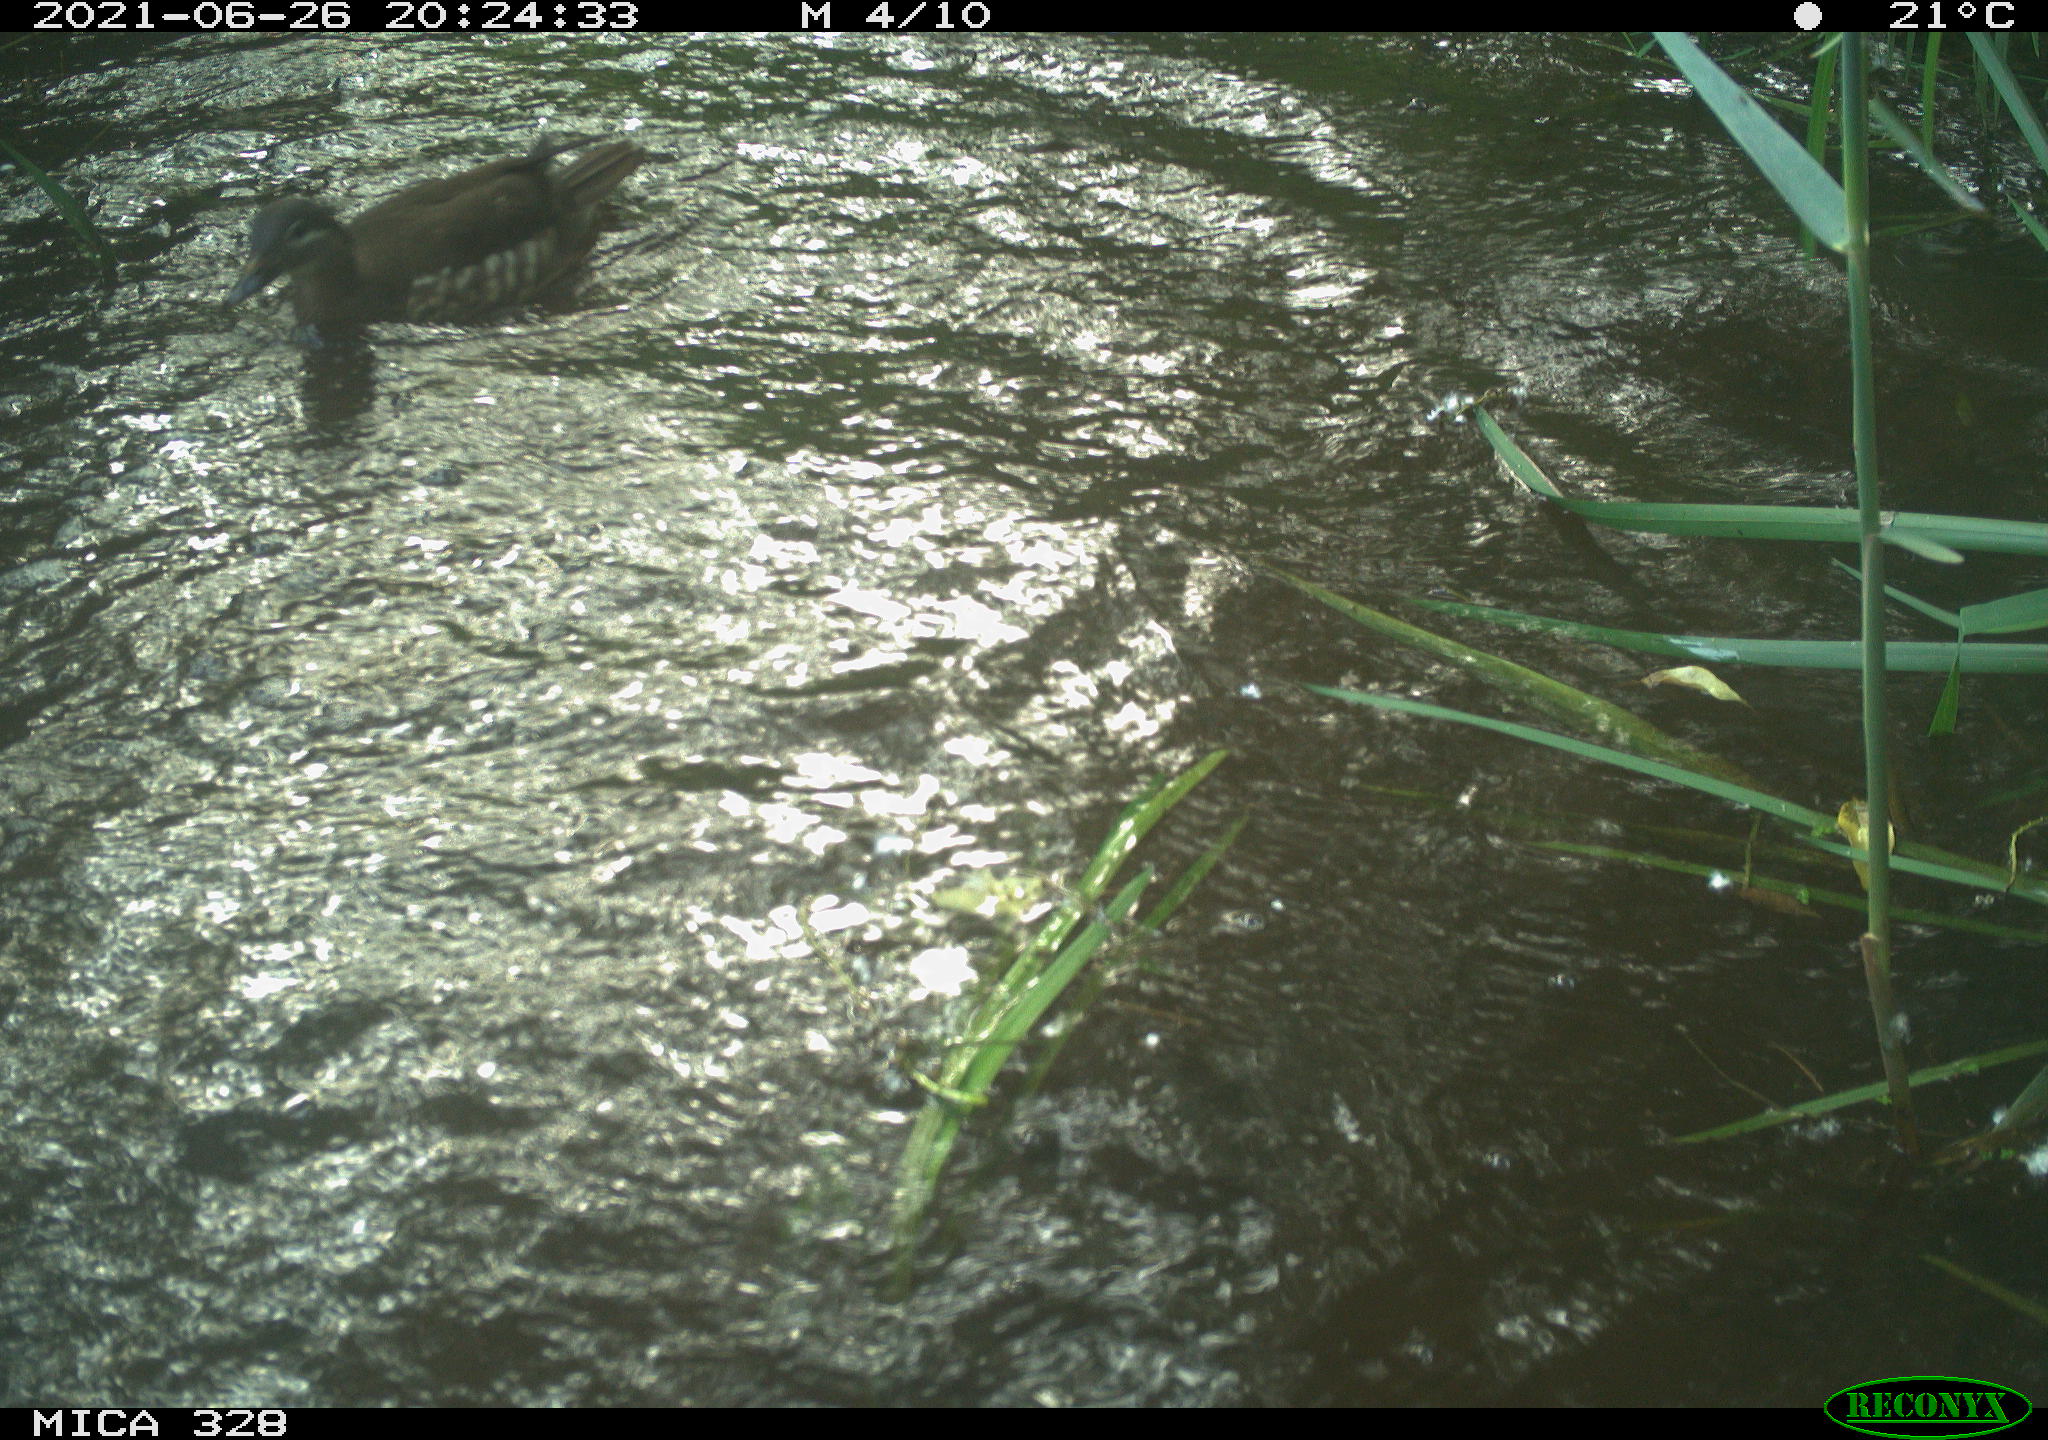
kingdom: Animalia
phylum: Chordata
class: Aves
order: Anseriformes
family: Anatidae
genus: Aix
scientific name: Aix galericulata
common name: Mandarin duck
